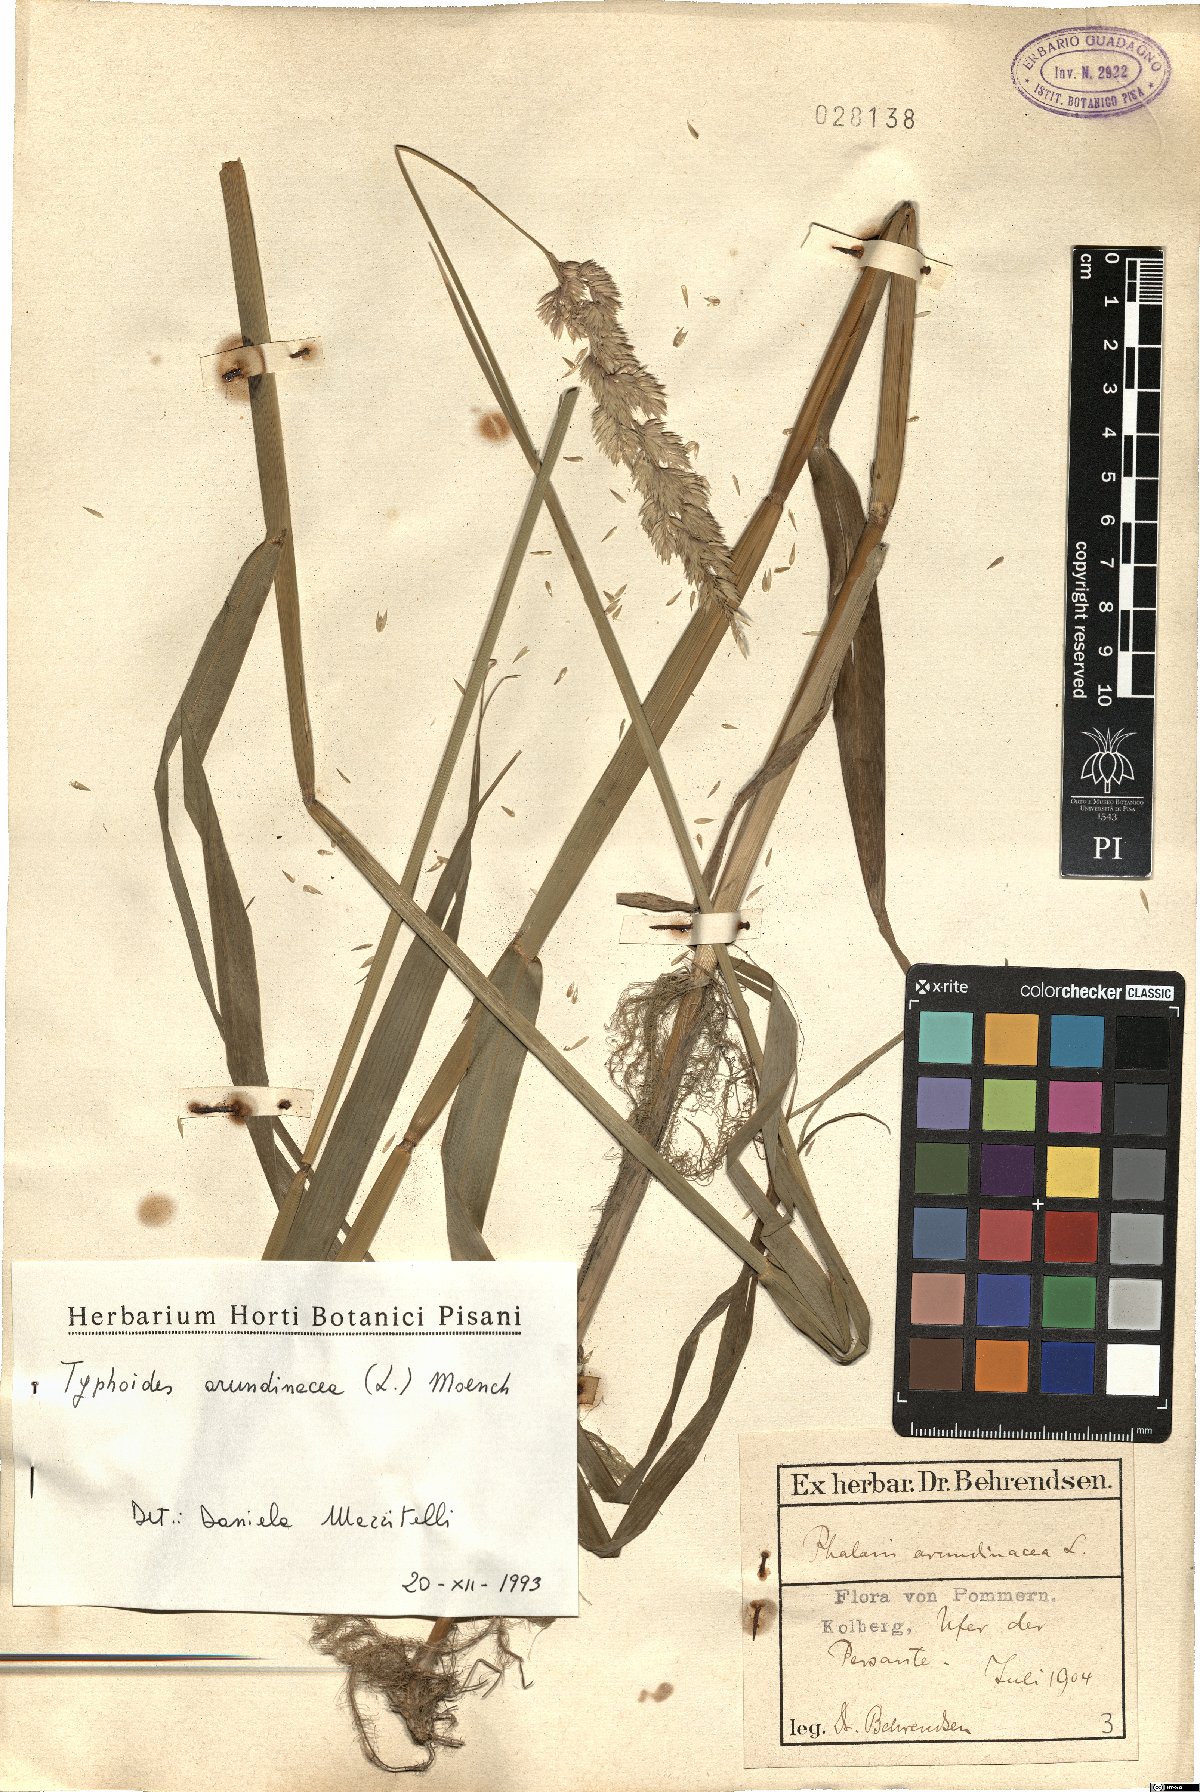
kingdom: Plantae
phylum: Tracheophyta
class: Liliopsida
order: Poales
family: Poaceae
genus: Phalaris
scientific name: Phalaris arundinacea
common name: Reed canary-grass
